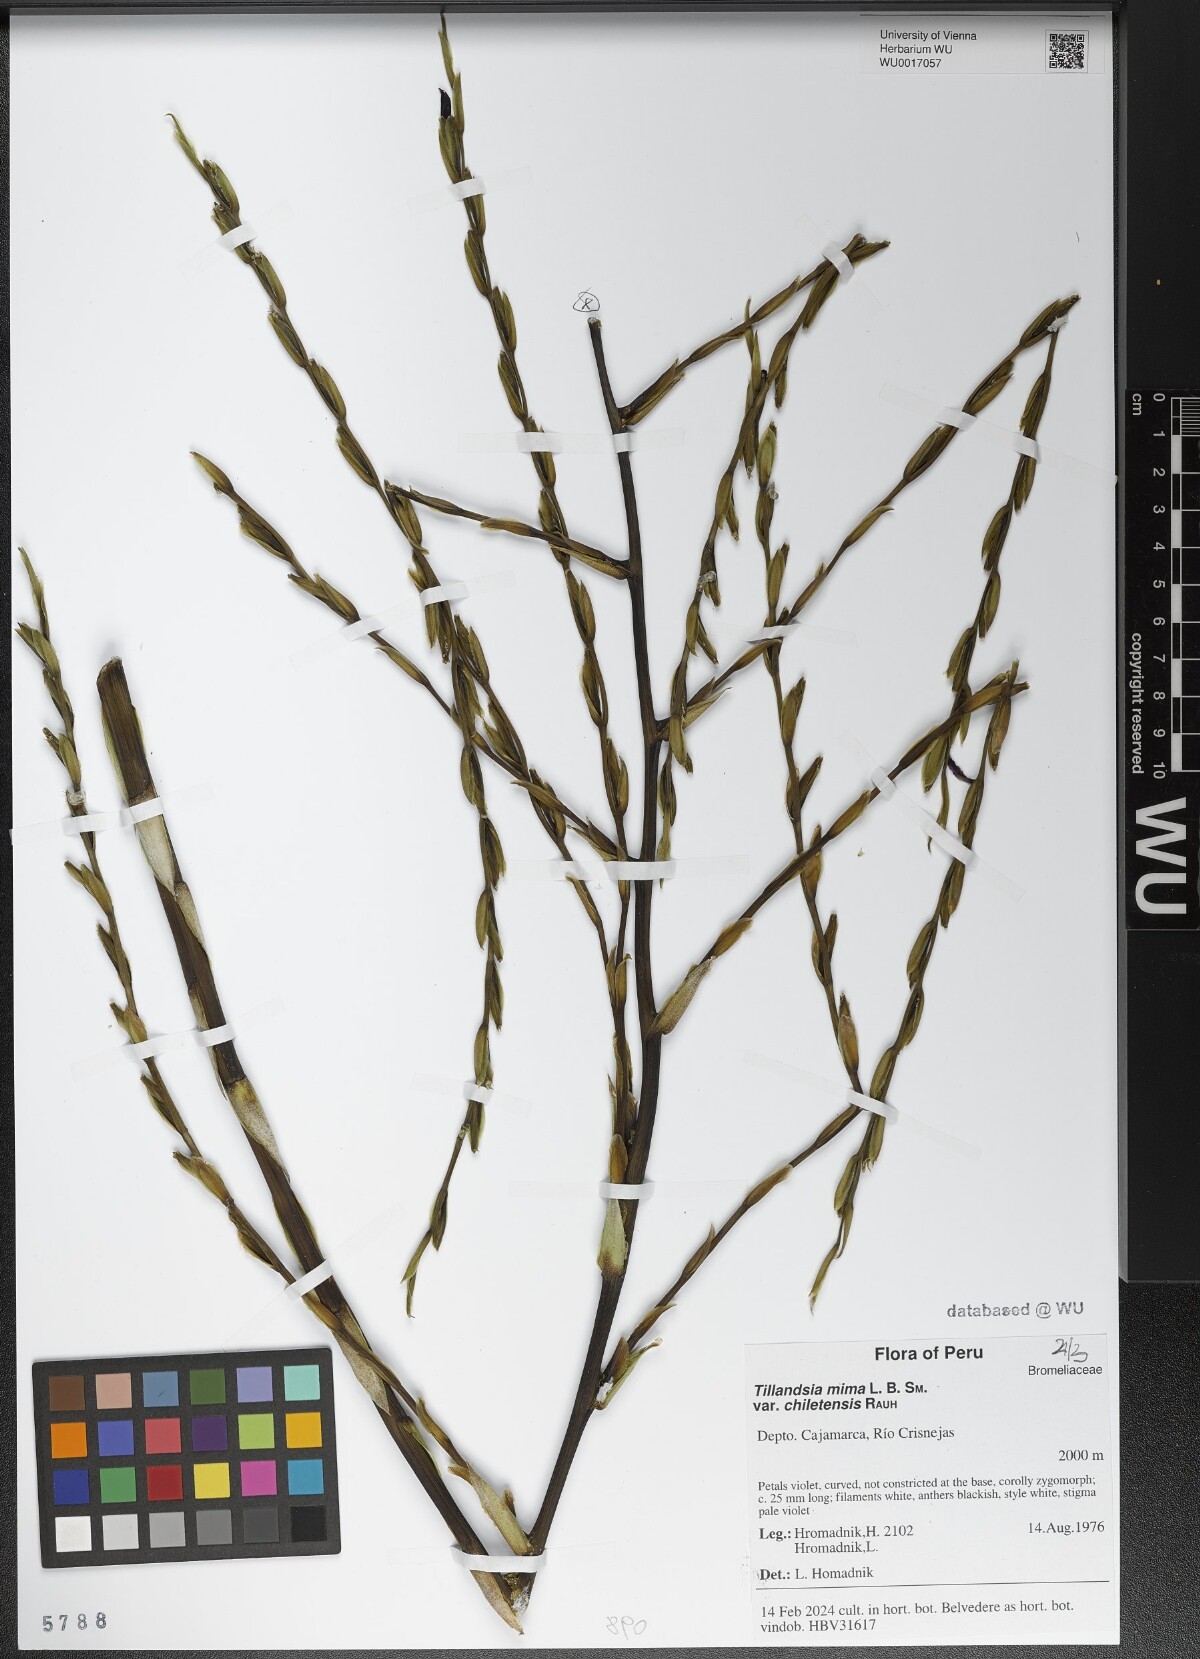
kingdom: Plantae
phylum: Tracheophyta
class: Liliopsida
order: Poales
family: Bromeliaceae
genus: Tillandsia
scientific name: Tillandsia mima
